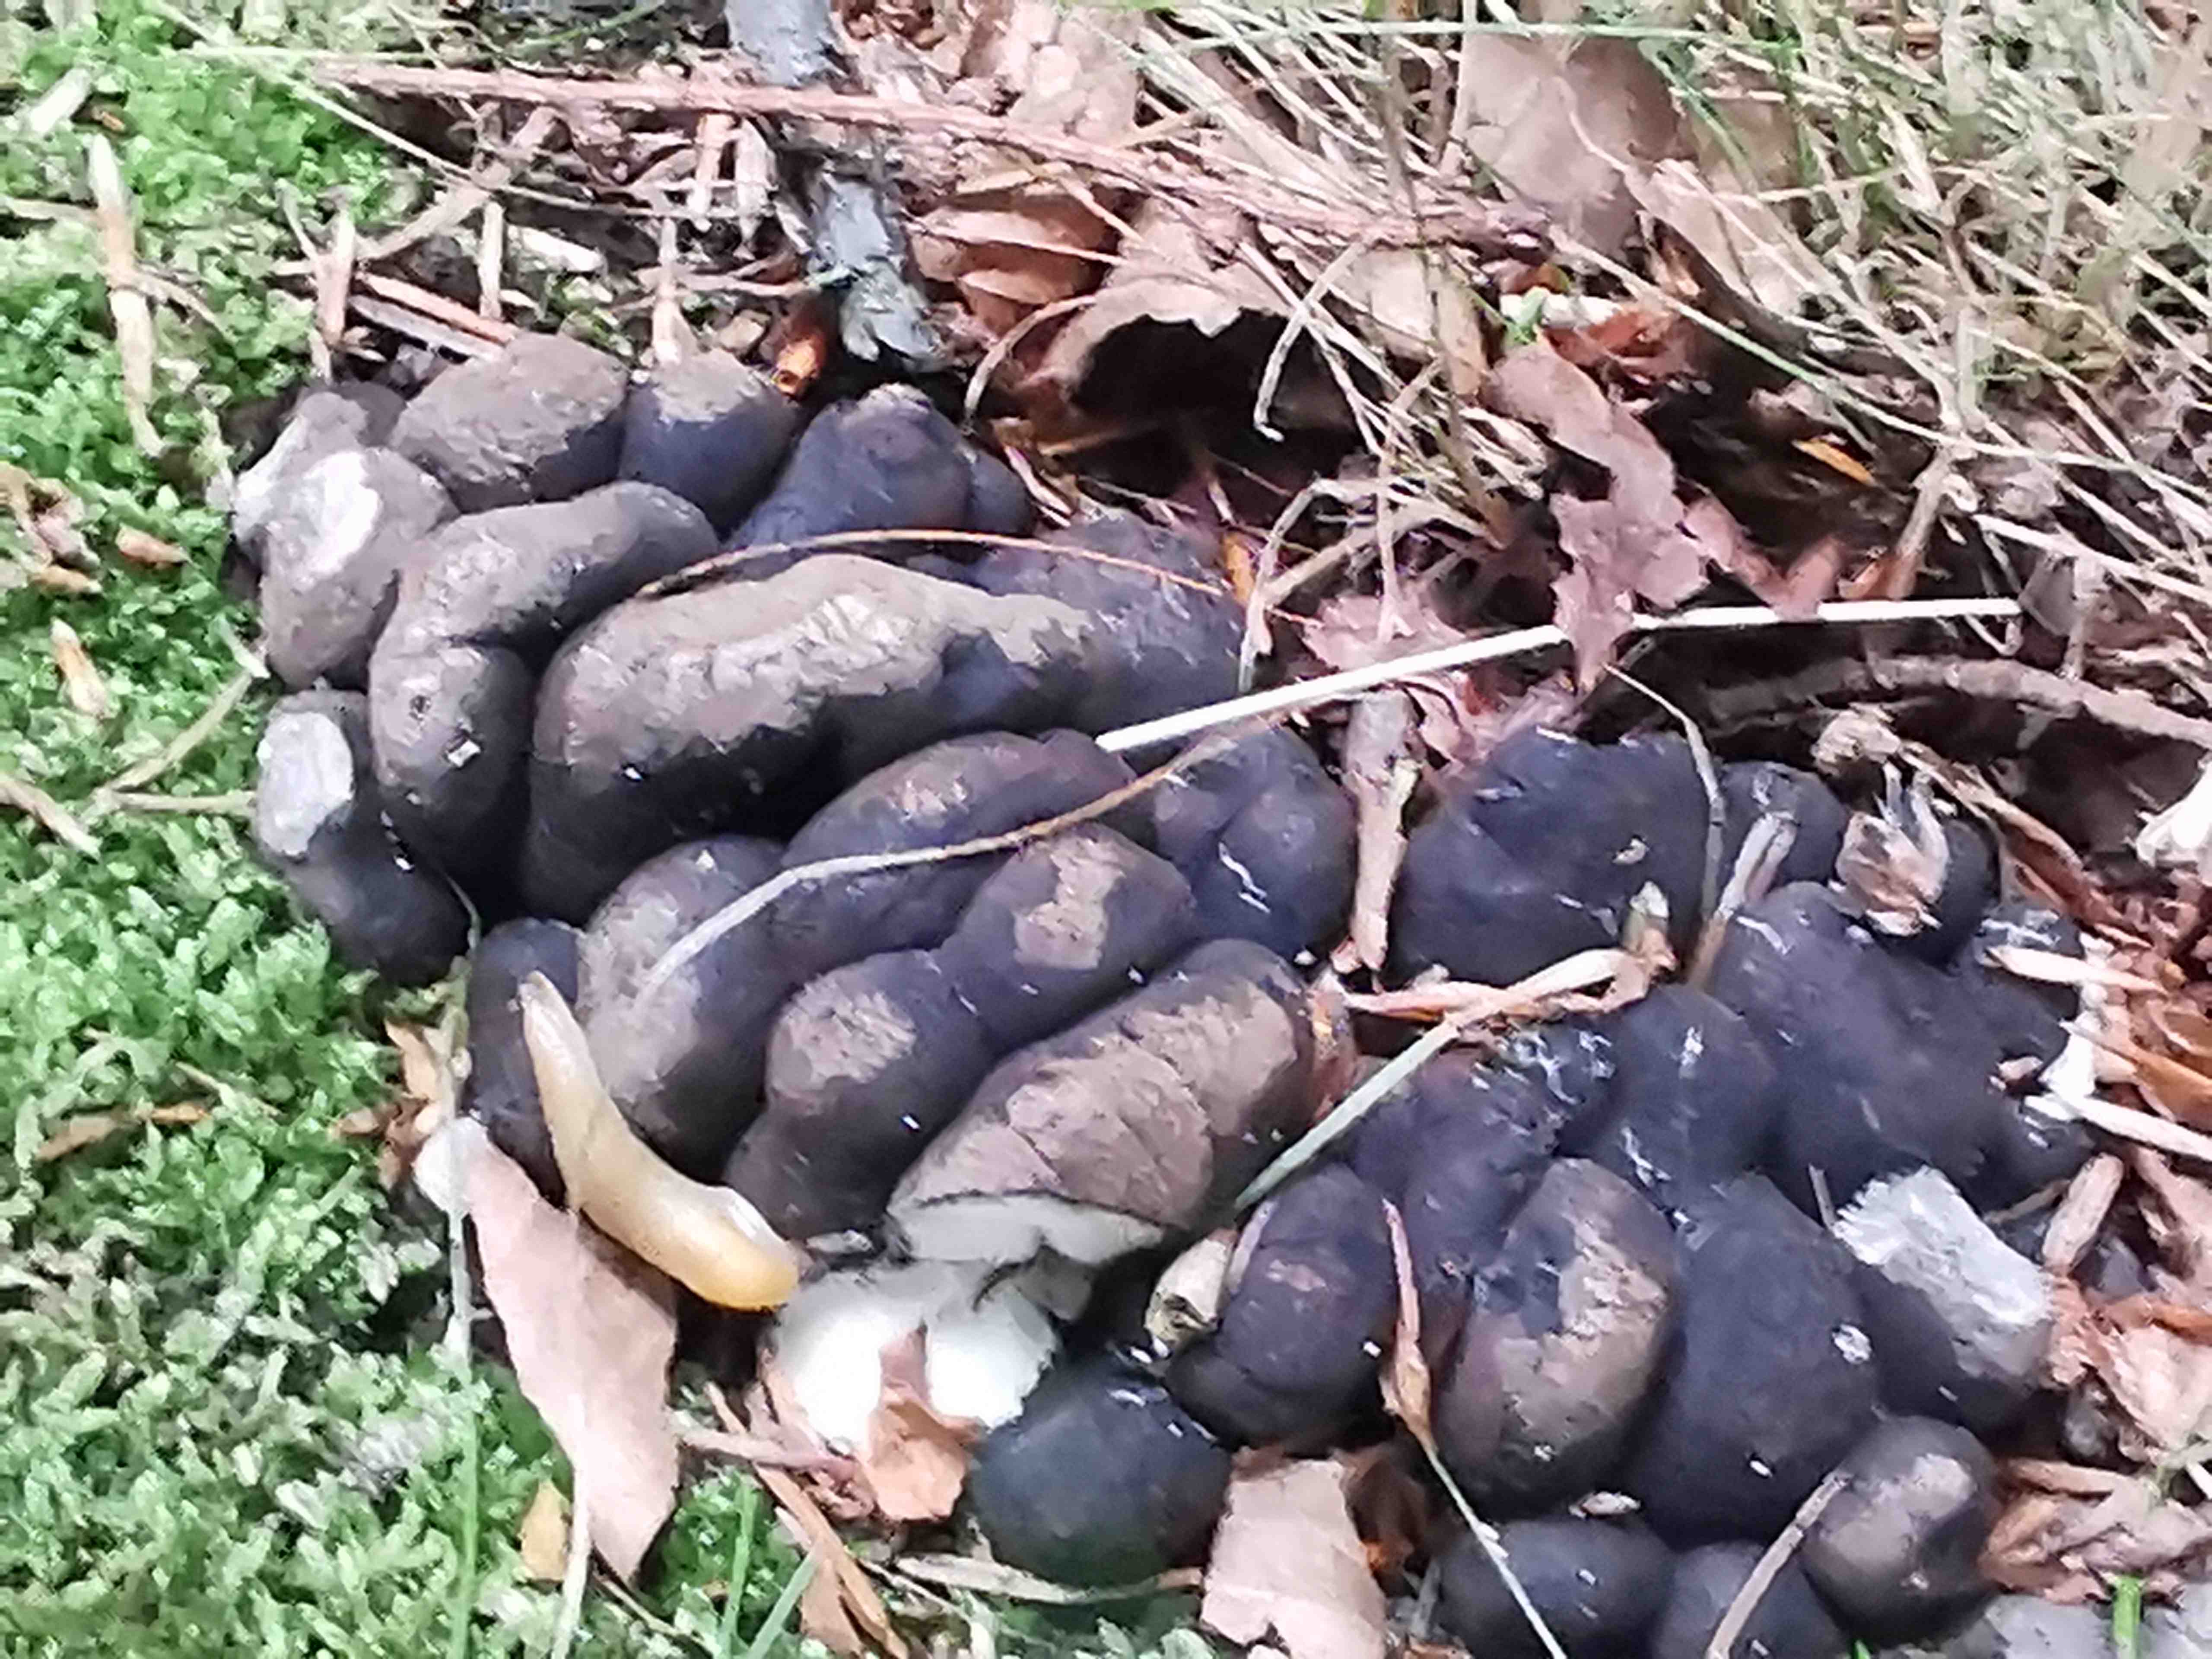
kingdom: Fungi
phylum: Ascomycota
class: Sordariomycetes
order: Xylariales
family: Xylariaceae
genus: Xylaria
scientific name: Xylaria polymorpha
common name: kølle-stødsvamp
